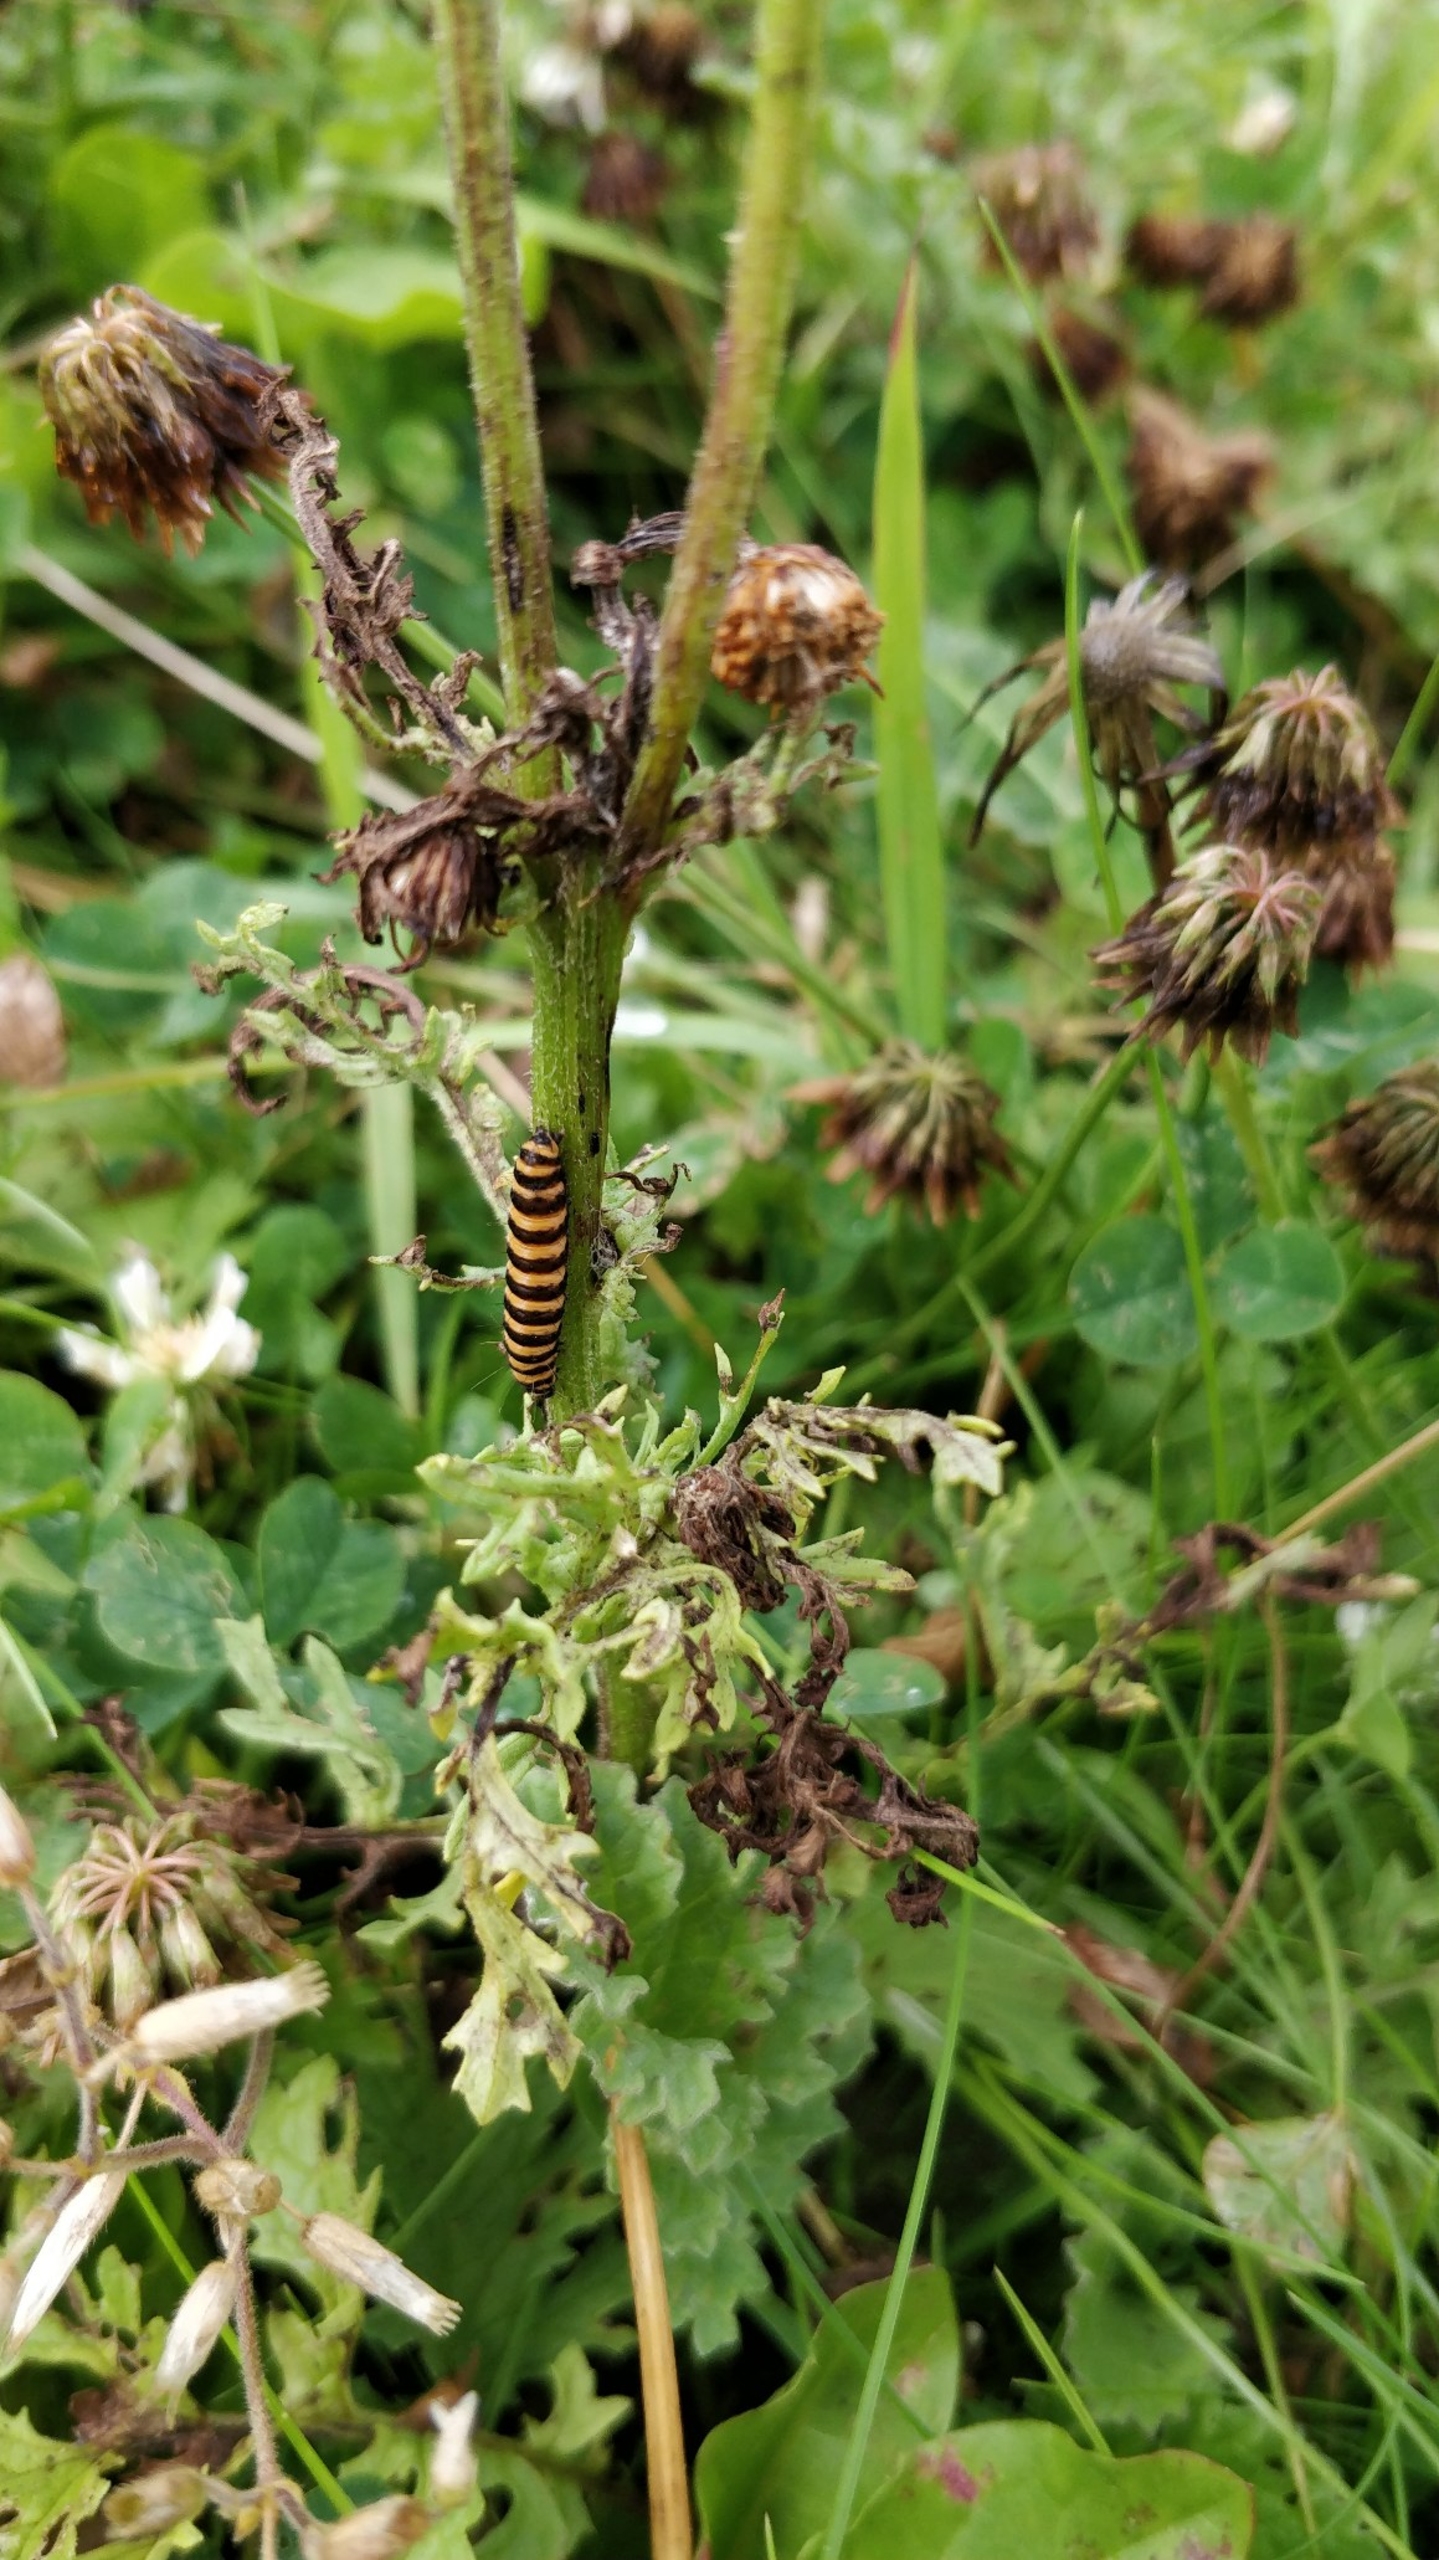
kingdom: Animalia
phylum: Arthropoda
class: Insecta
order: Lepidoptera
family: Erebidae
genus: Tyria
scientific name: Tyria jacobaeae
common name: Blodplet
